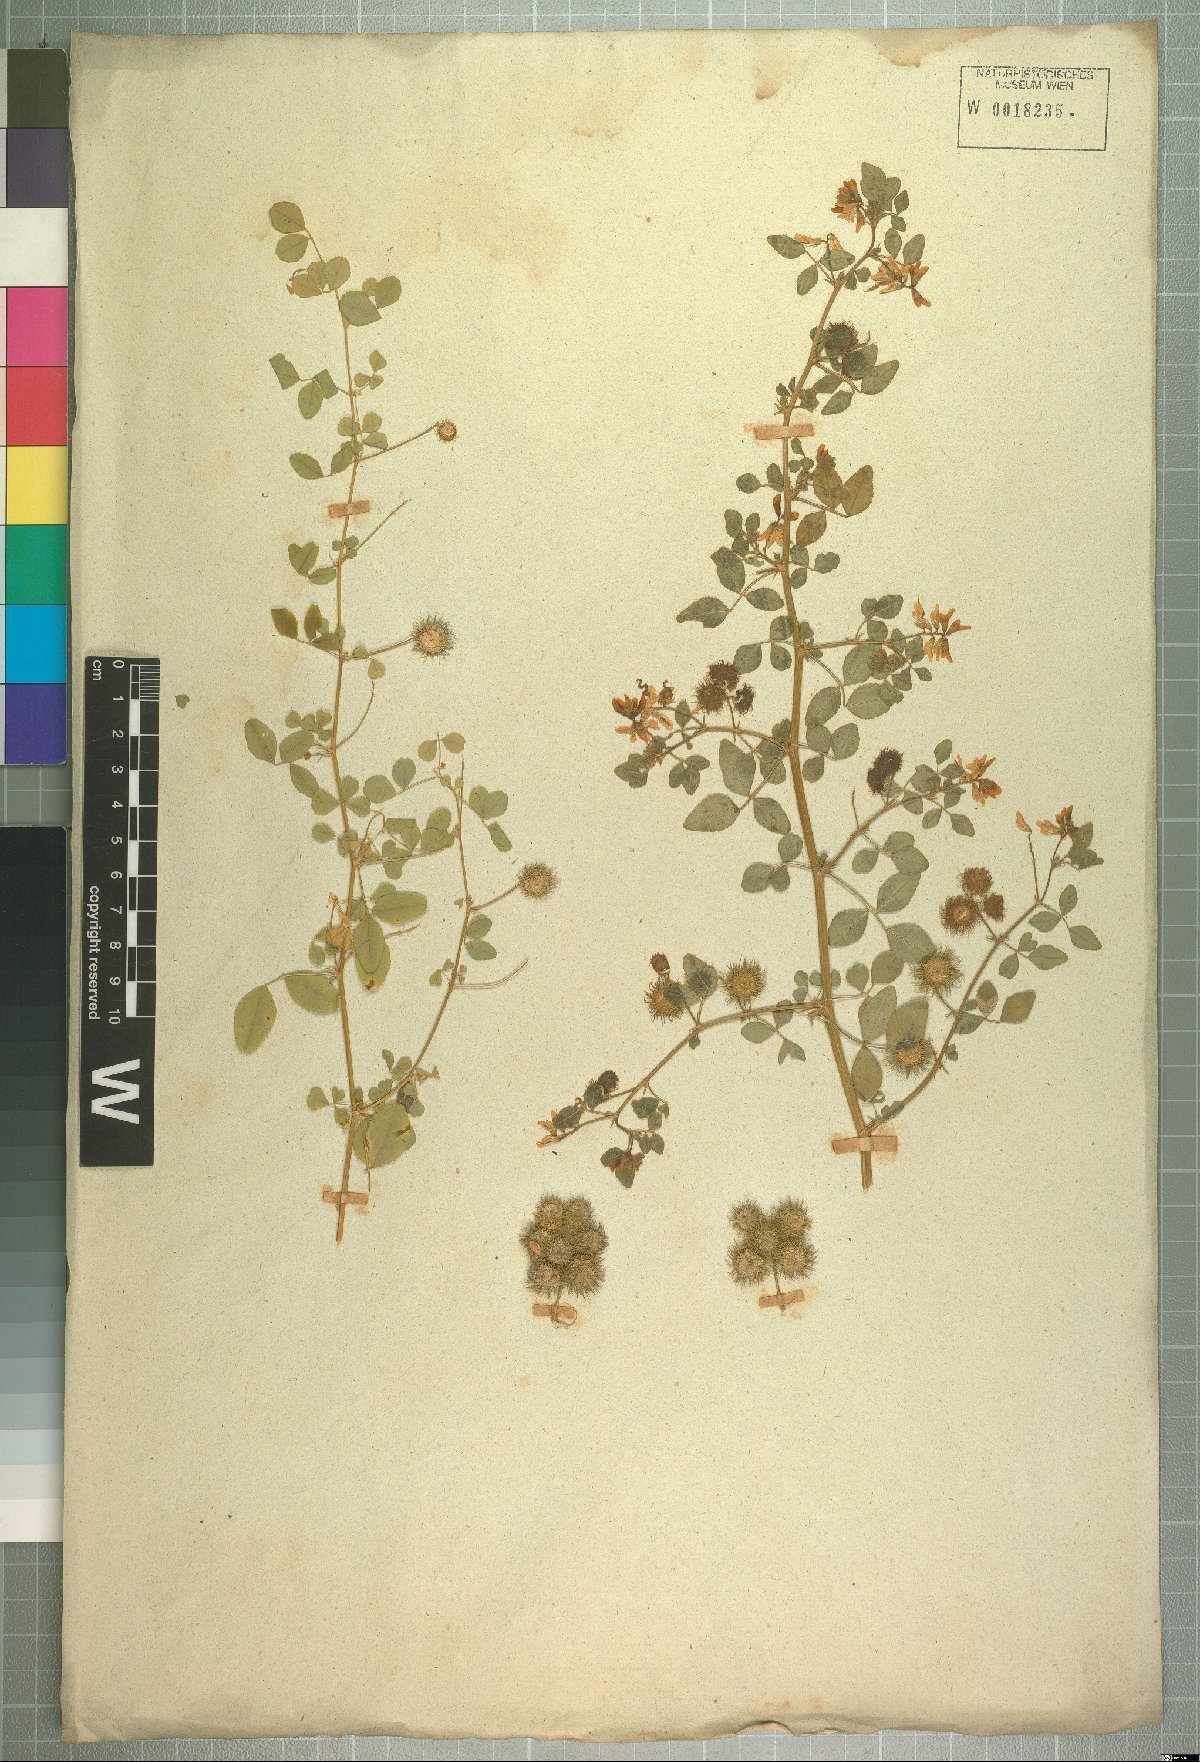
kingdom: Plantae
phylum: Tracheophyta
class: Magnoliopsida
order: Fabales
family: Fabaceae
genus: Medicago
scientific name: Medicago carstiensis
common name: Creeping-rooted medic
